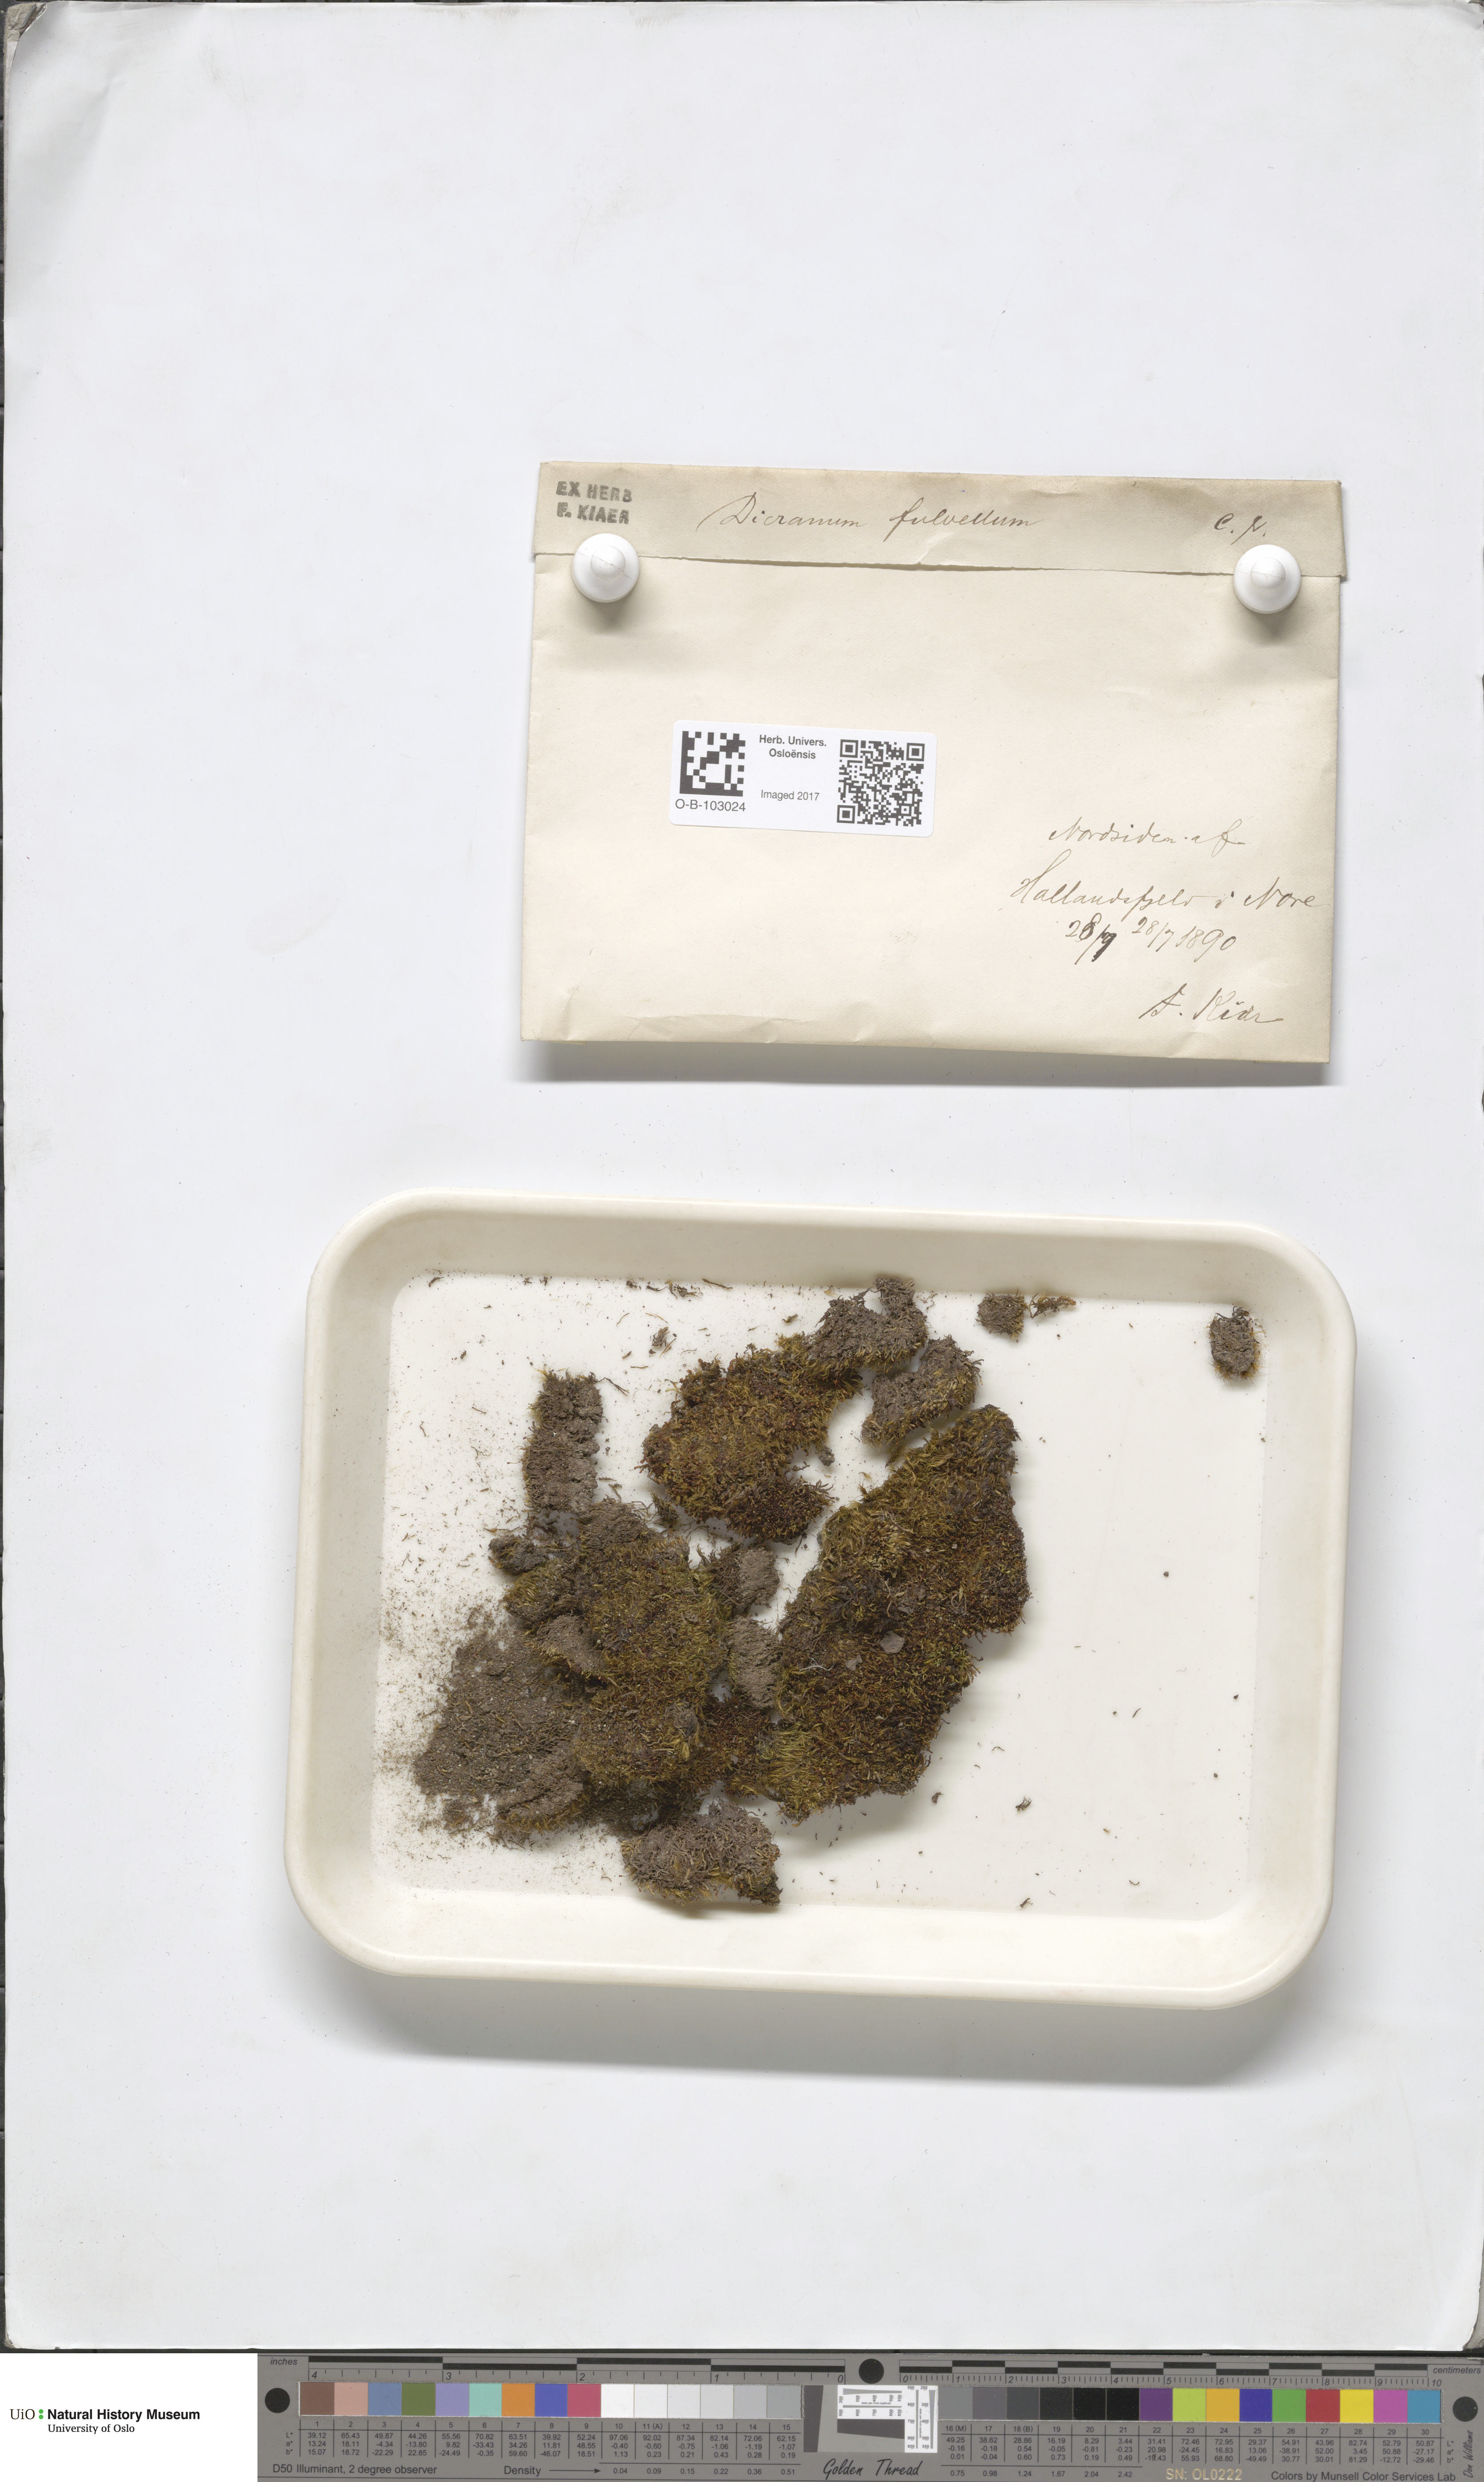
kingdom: Plantae
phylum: Bryophyta
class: Bryopsida
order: Dicranales
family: Rhabdoweisiaceae
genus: Arctoa
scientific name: Arctoa fulvella
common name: Tawny fork moss
